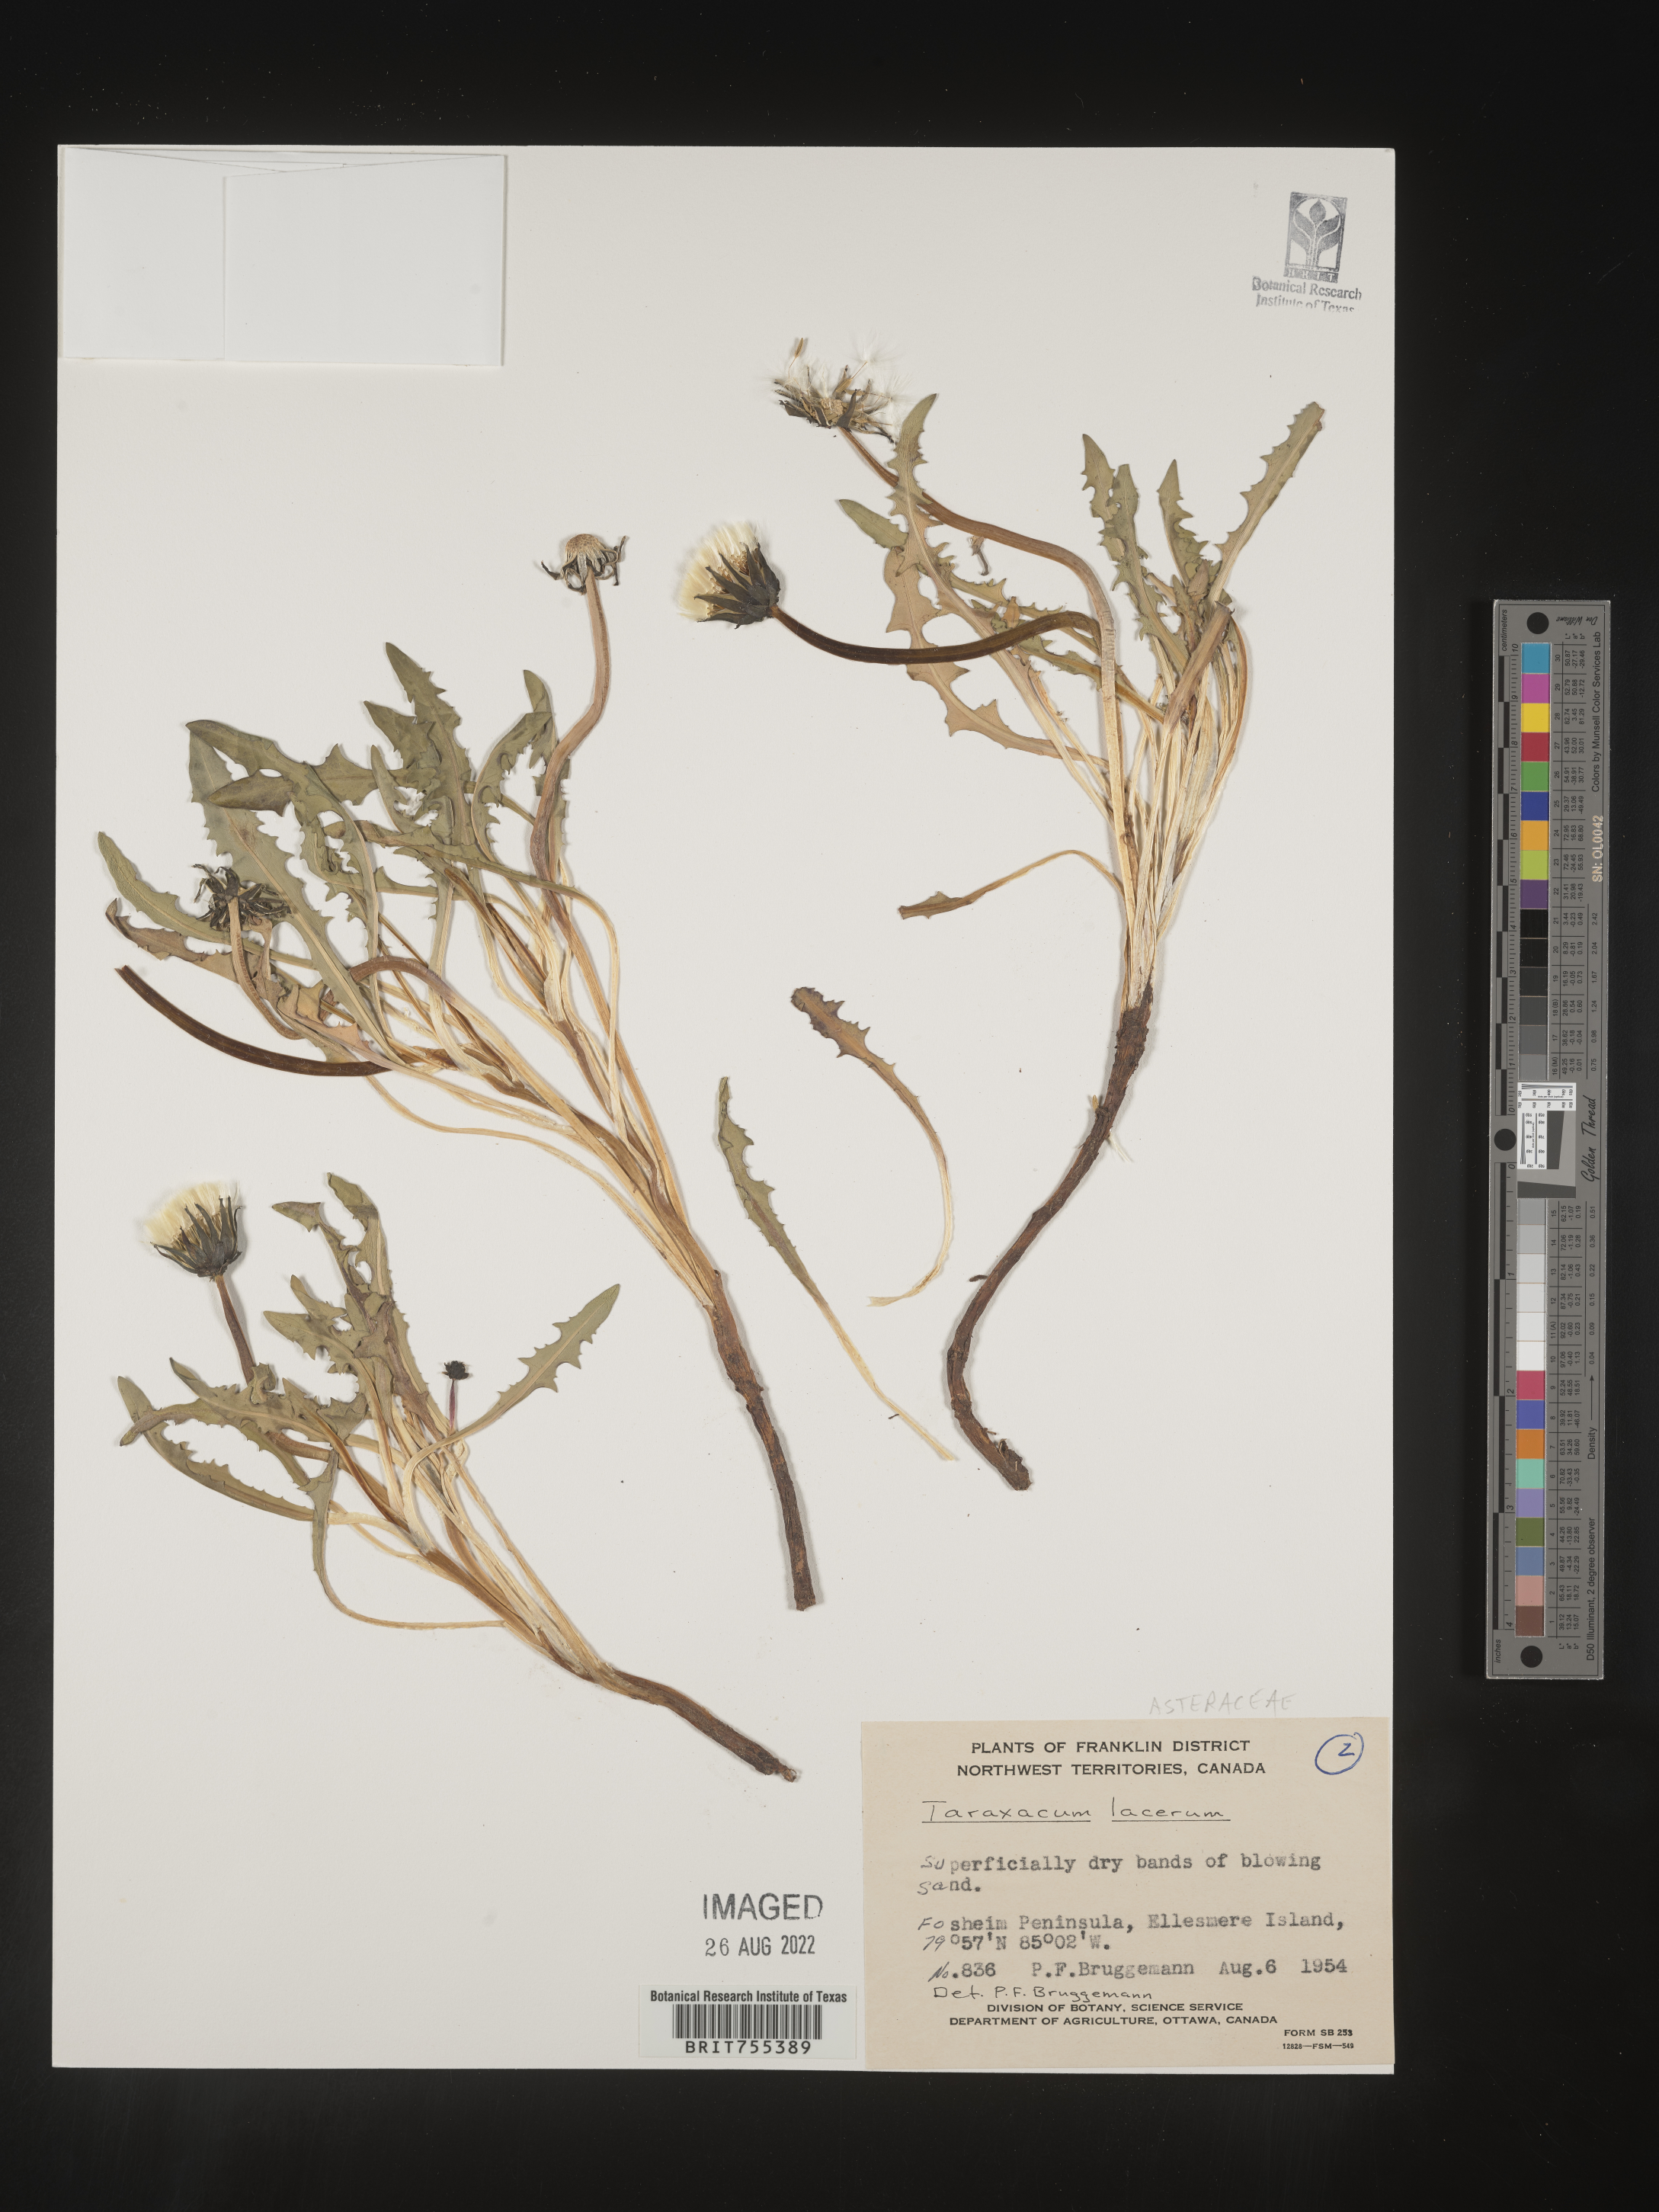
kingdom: Plantae
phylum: Tracheophyta
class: Magnoliopsida
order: Asterales
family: Asteraceae
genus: Taraxacum
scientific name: Taraxacum ceratophorum
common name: Horn-bearing dandelion
